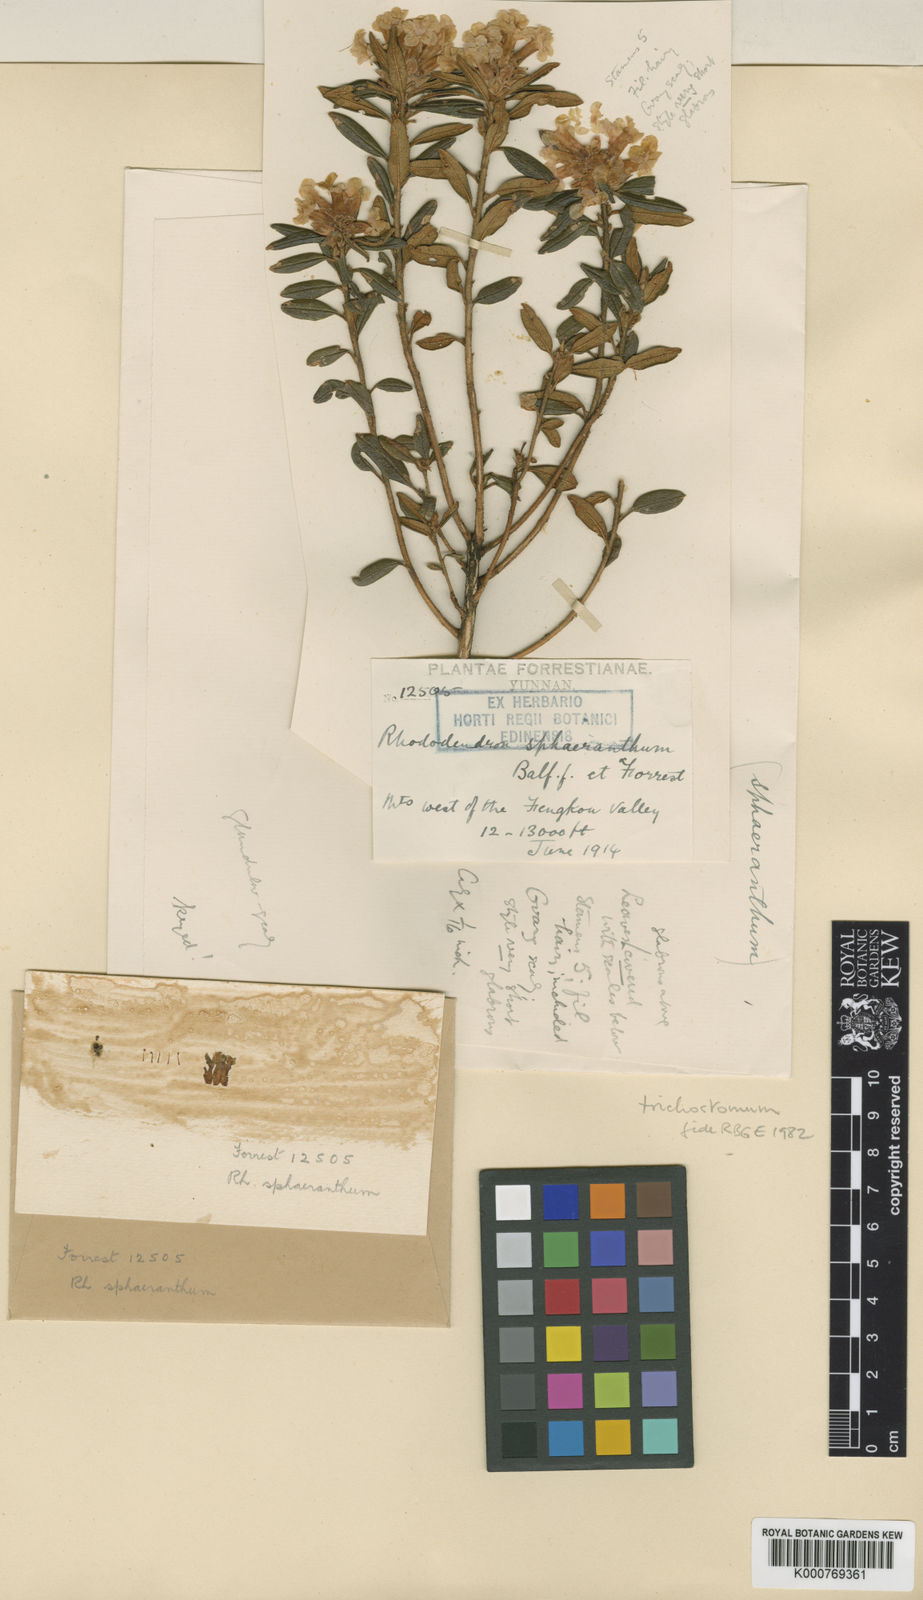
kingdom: Plantae
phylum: Tracheophyta
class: Magnoliopsida
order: Ericales
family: Ericaceae
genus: Rhododendron
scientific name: Rhododendron trichostomum
